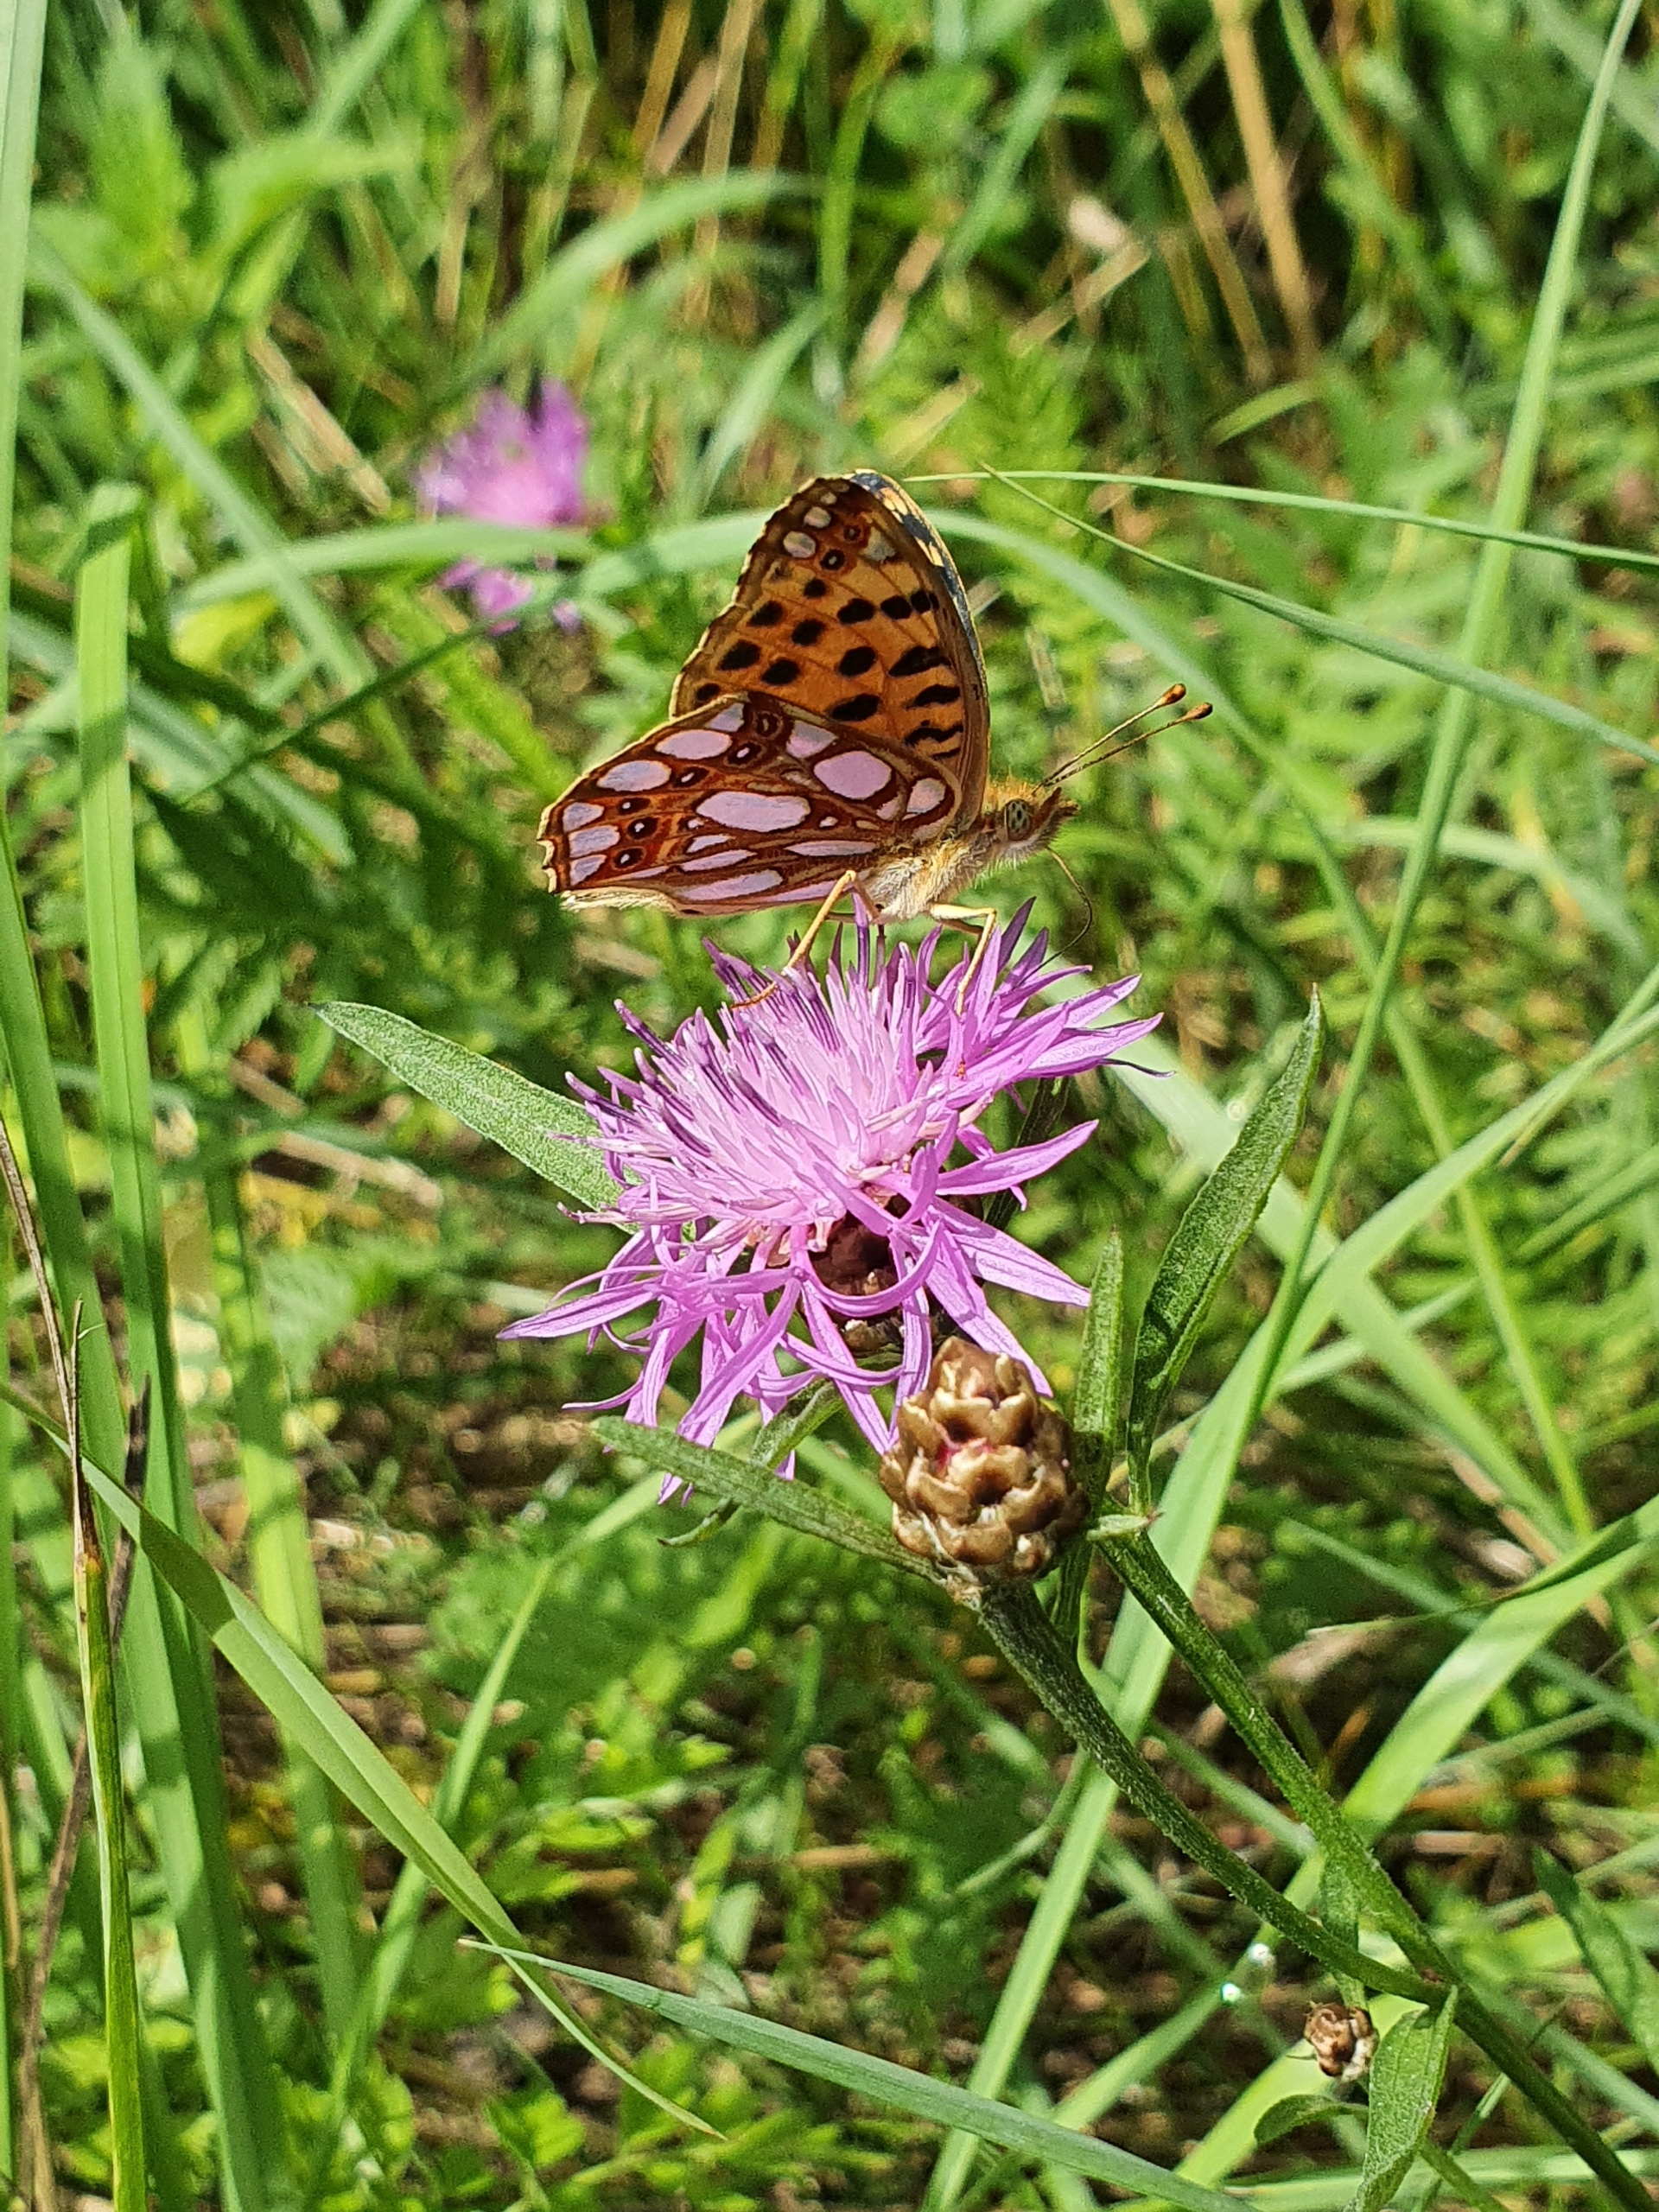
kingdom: Animalia
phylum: Arthropoda
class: Insecta
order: Lepidoptera
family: Nymphalidae
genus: Issoria
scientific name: Issoria lathonia
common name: Storplettet perlemorsommerfugl
